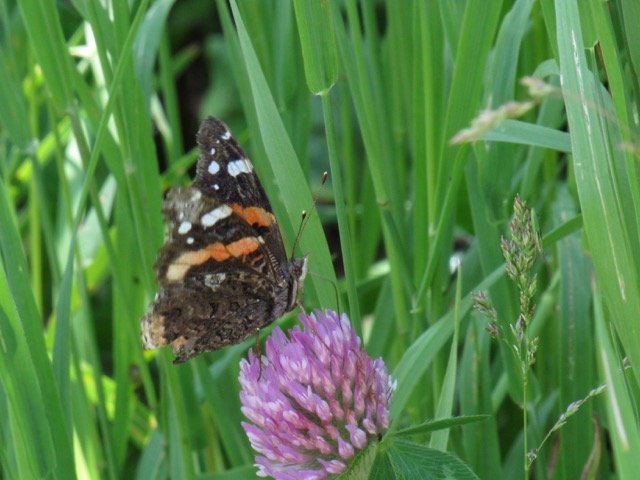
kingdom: Animalia
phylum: Arthropoda
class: Insecta
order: Lepidoptera
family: Nymphalidae
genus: Vanessa
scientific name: Vanessa atalanta
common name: Red Admiral
